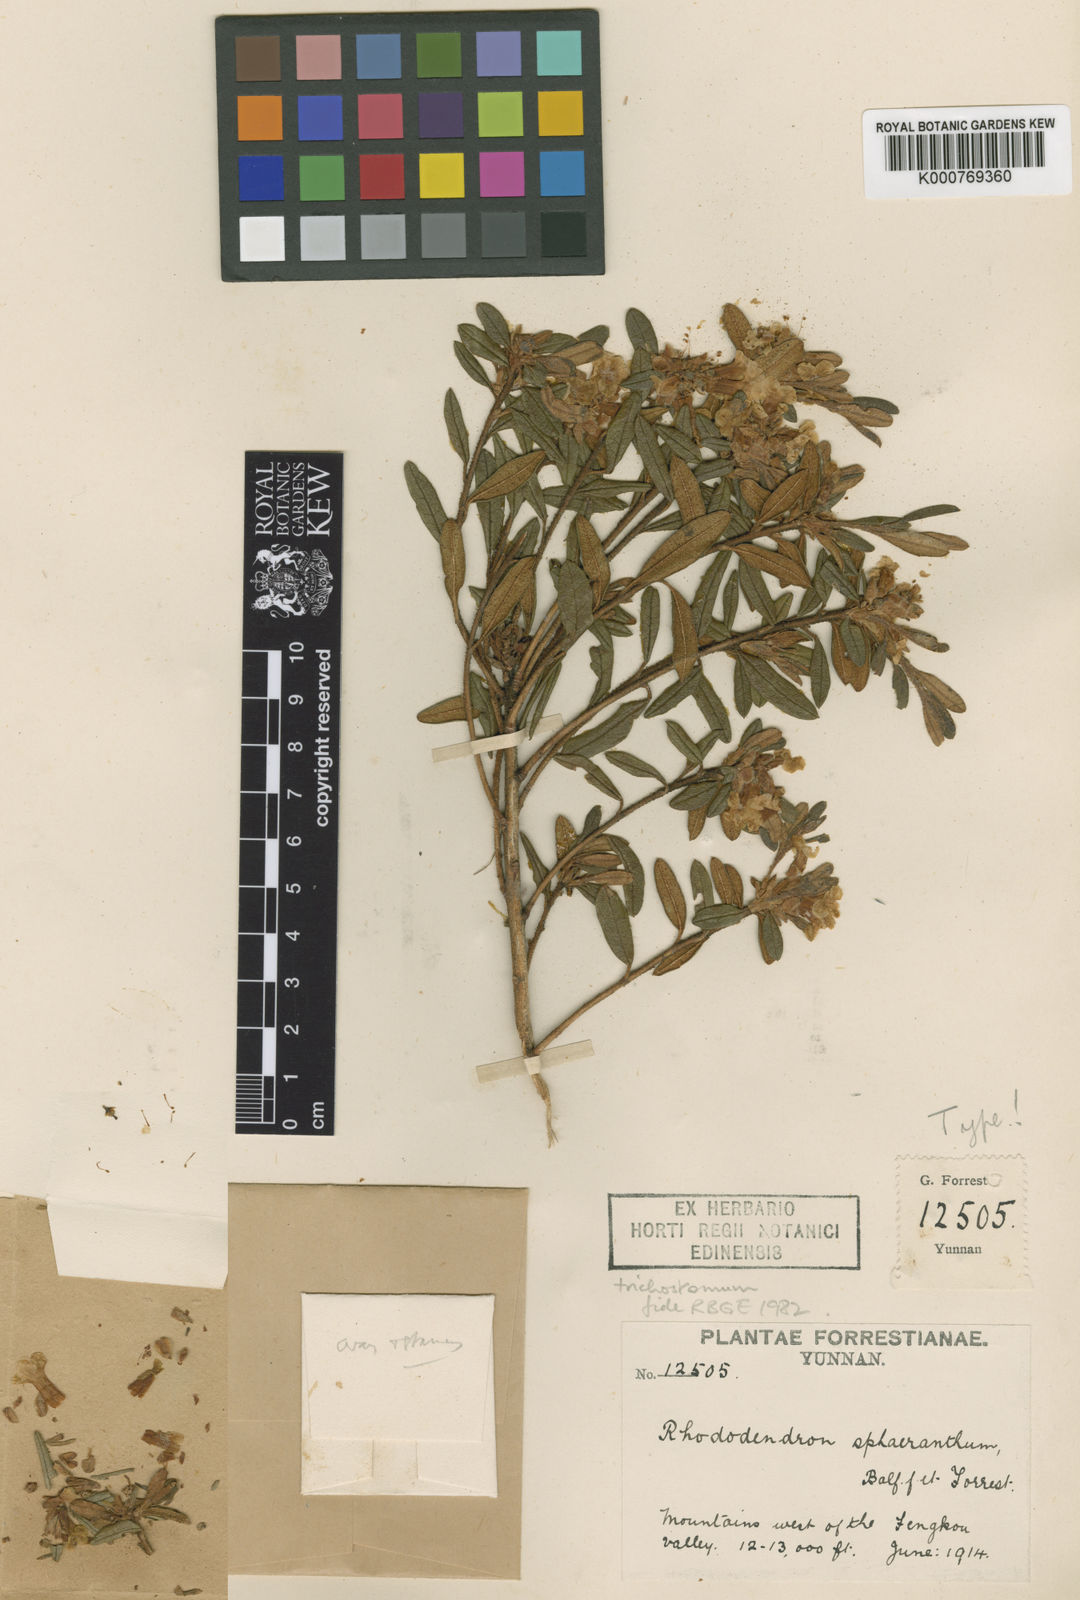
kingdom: Plantae
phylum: Tracheophyta
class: Magnoliopsida
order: Ericales
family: Ericaceae
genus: Rhododendron
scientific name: Rhododendron trichostomum
